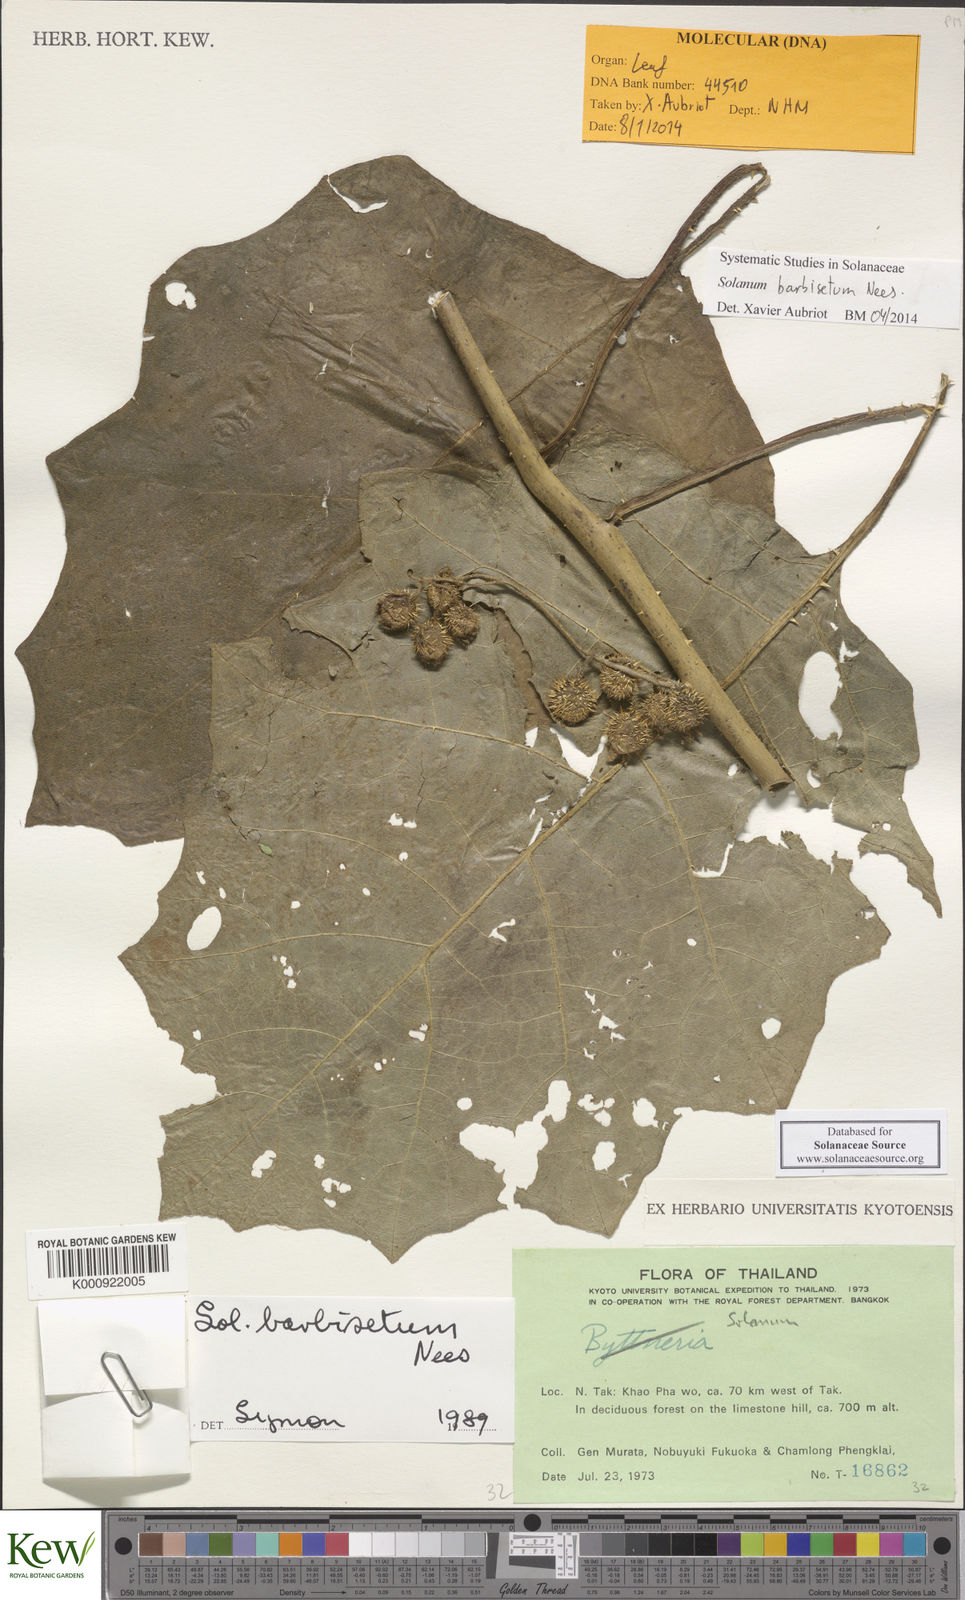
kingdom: Plantae
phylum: Tracheophyta
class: Magnoliopsida
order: Solanales
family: Solanaceae
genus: Solanum
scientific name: Solanum barbisetum
